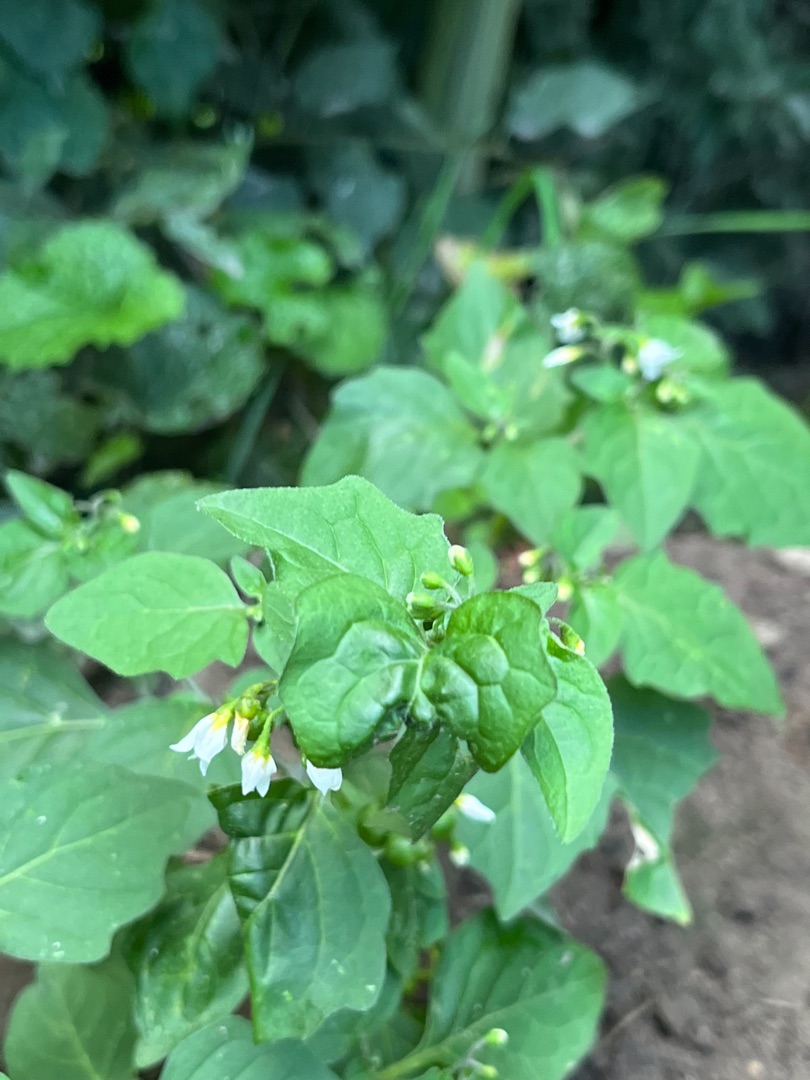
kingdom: Plantae
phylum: Tracheophyta
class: Magnoliopsida
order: Solanales
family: Solanaceae
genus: Solanum
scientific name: Solanum nigrum
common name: Sort natskygge
